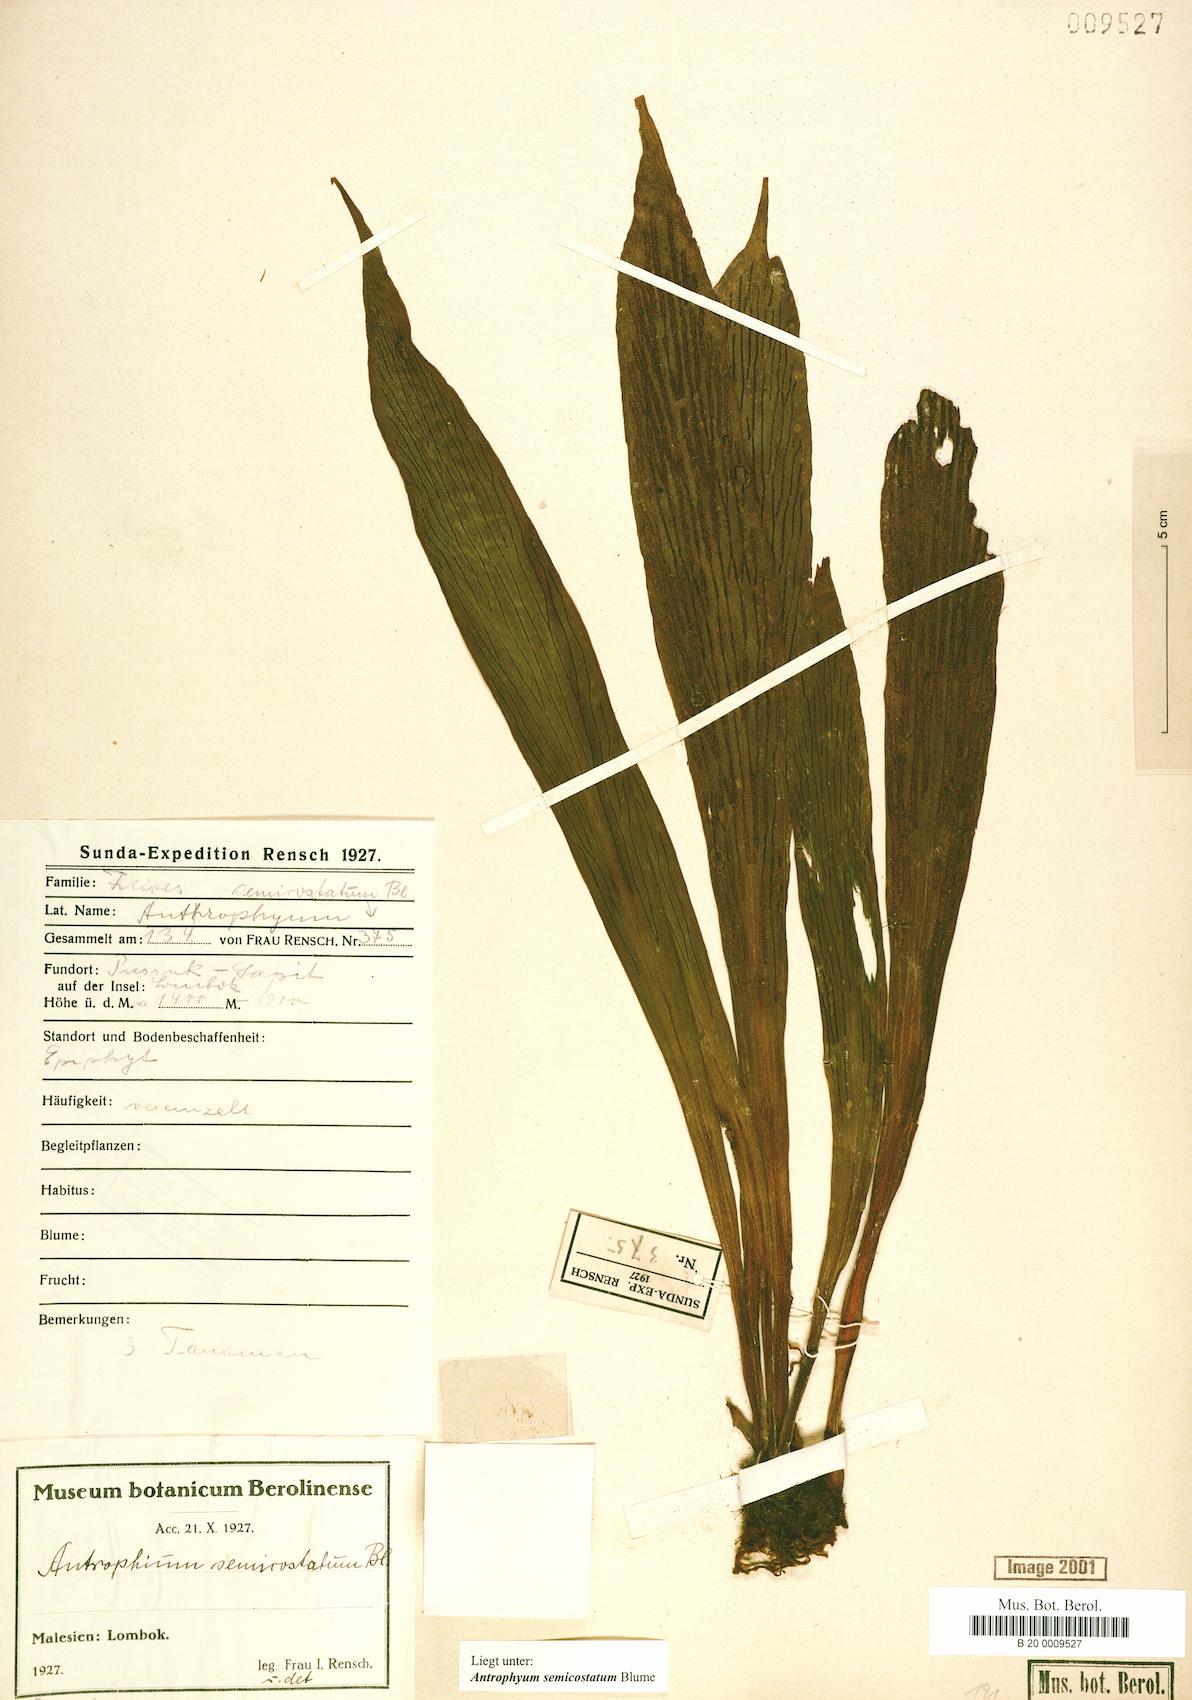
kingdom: Plantae
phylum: Tracheophyta
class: Polypodiopsida
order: Polypodiales
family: Pteridaceae
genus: Antrophyum
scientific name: Antrophyum semicostatum
